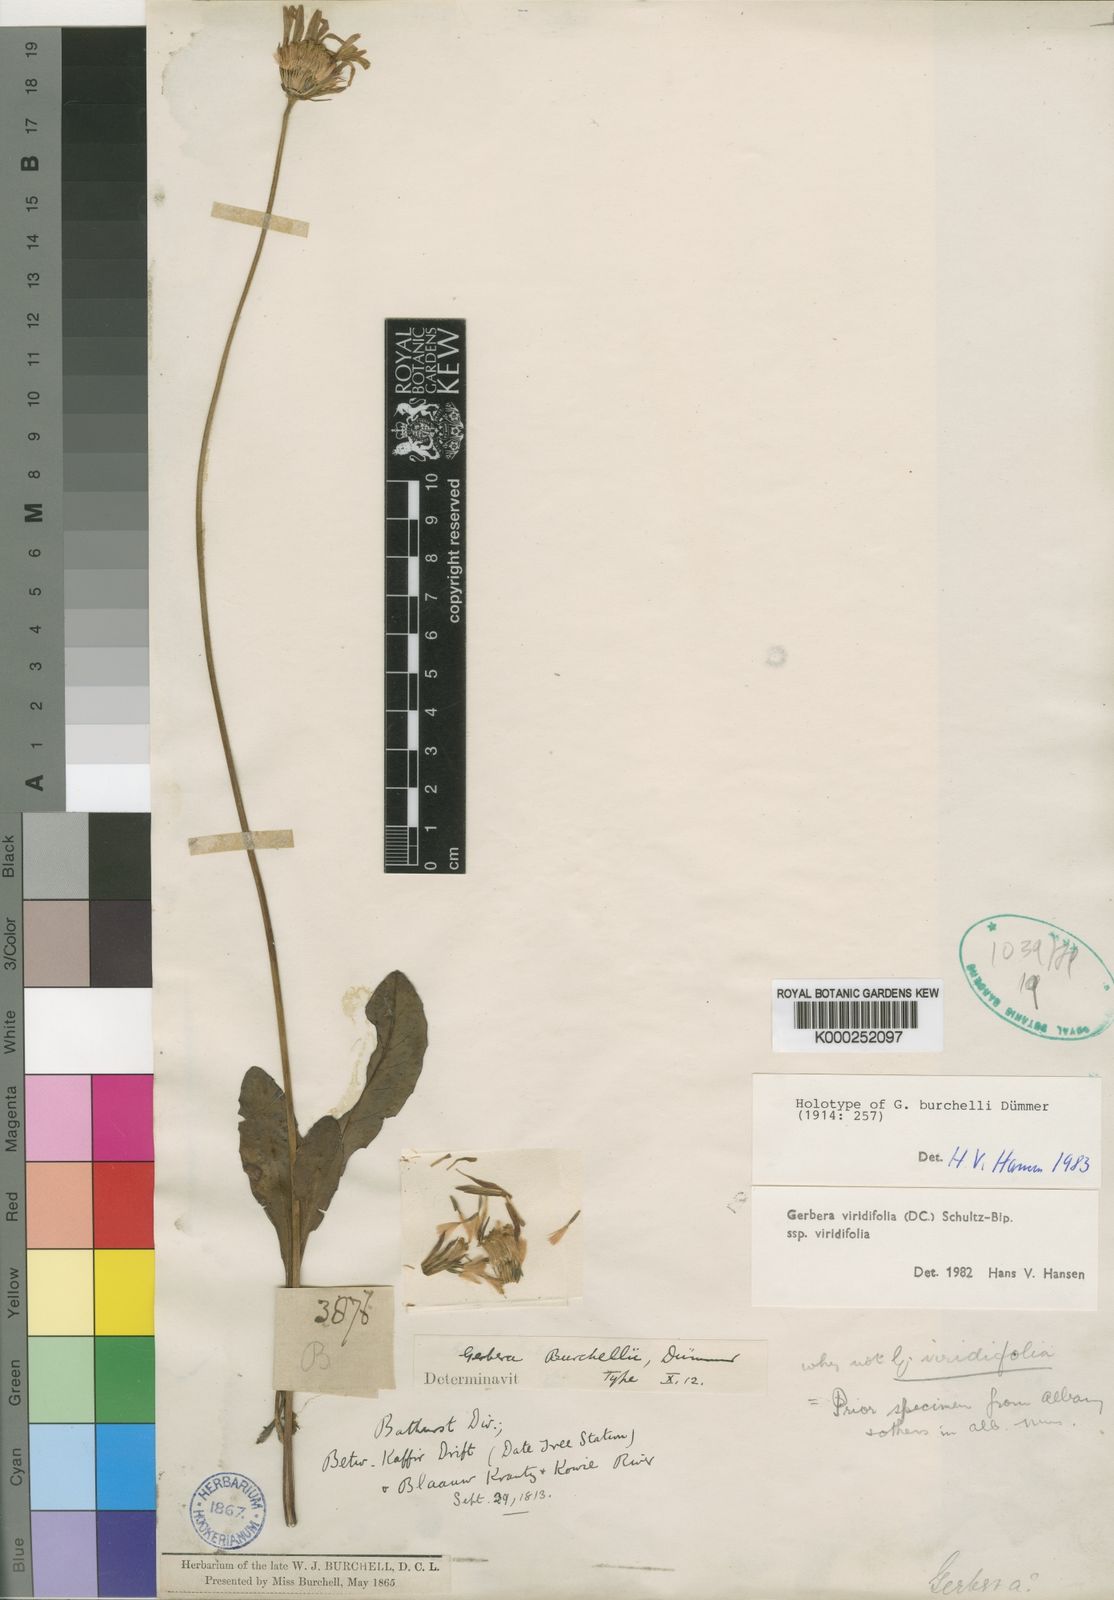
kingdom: Plantae
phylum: Tracheophyta
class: Magnoliopsida
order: Asterales
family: Asteraceae
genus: Gerbera
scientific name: Gerbera viridifolia
